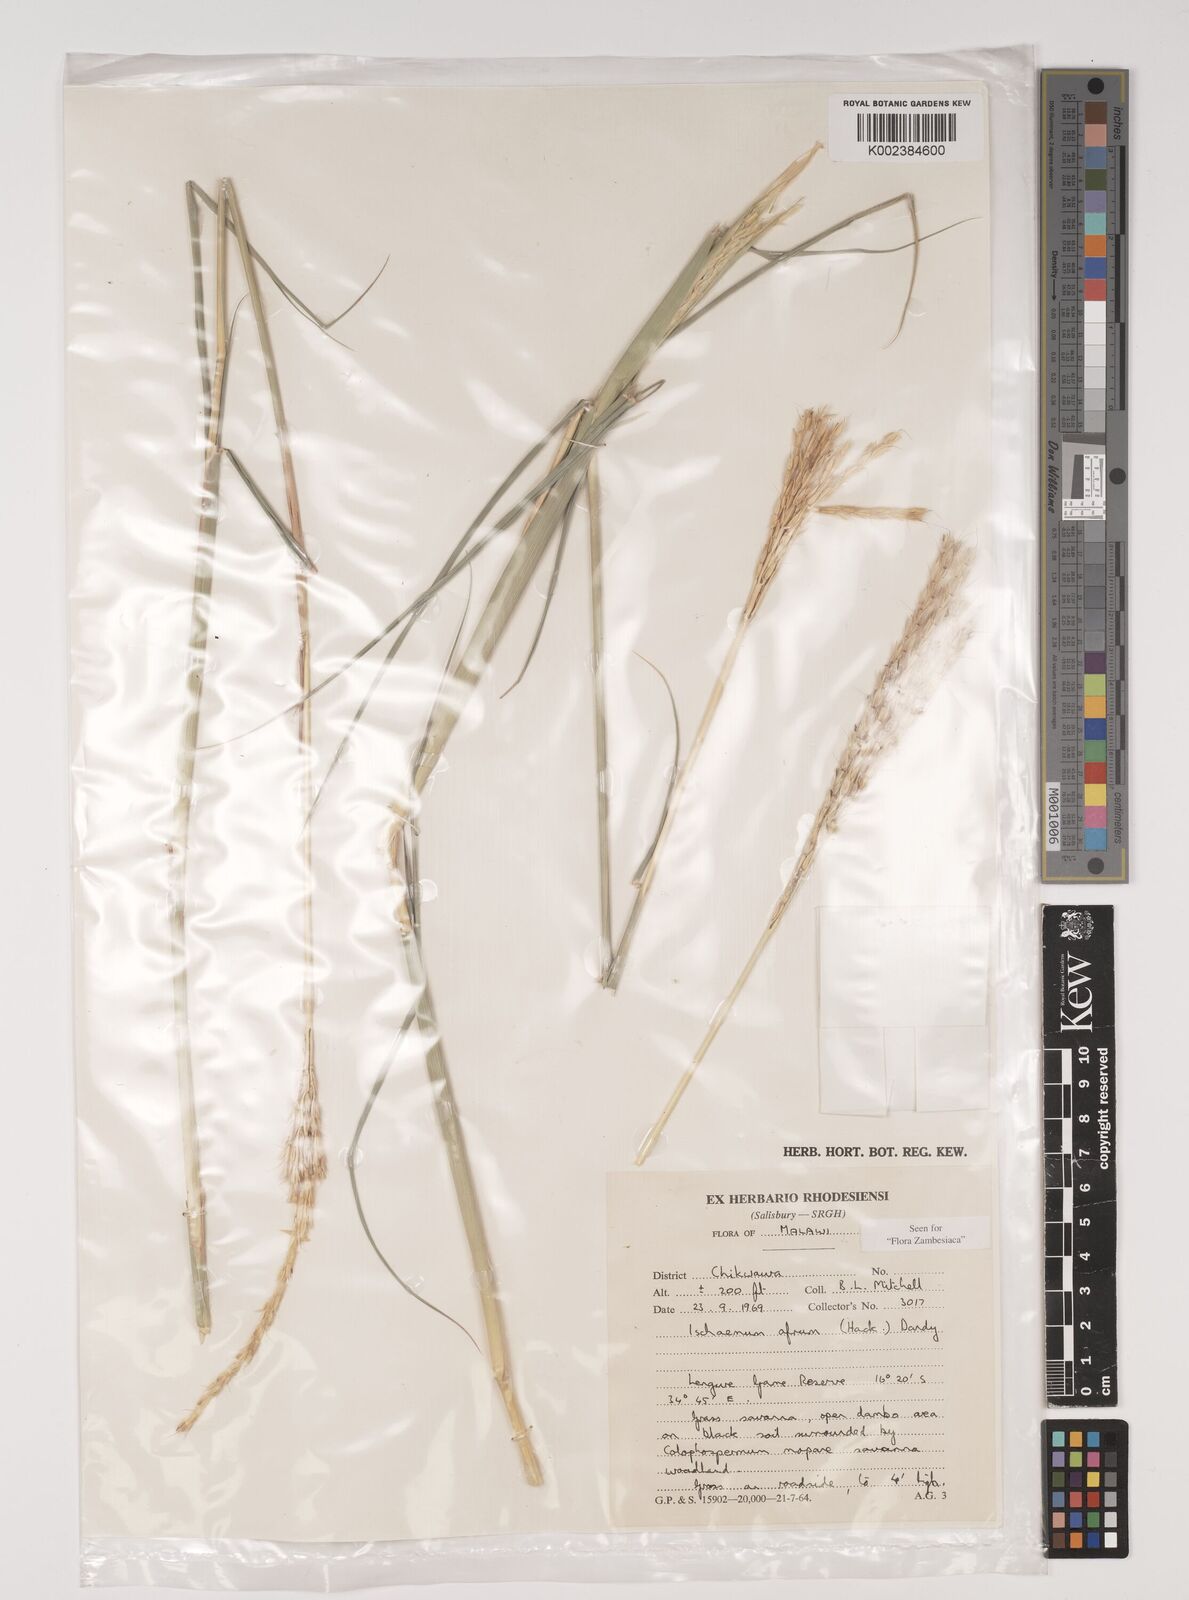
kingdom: Plantae
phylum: Tracheophyta
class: Liliopsida
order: Poales
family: Poaceae
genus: Ischaemum
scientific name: Ischaemum afrum
